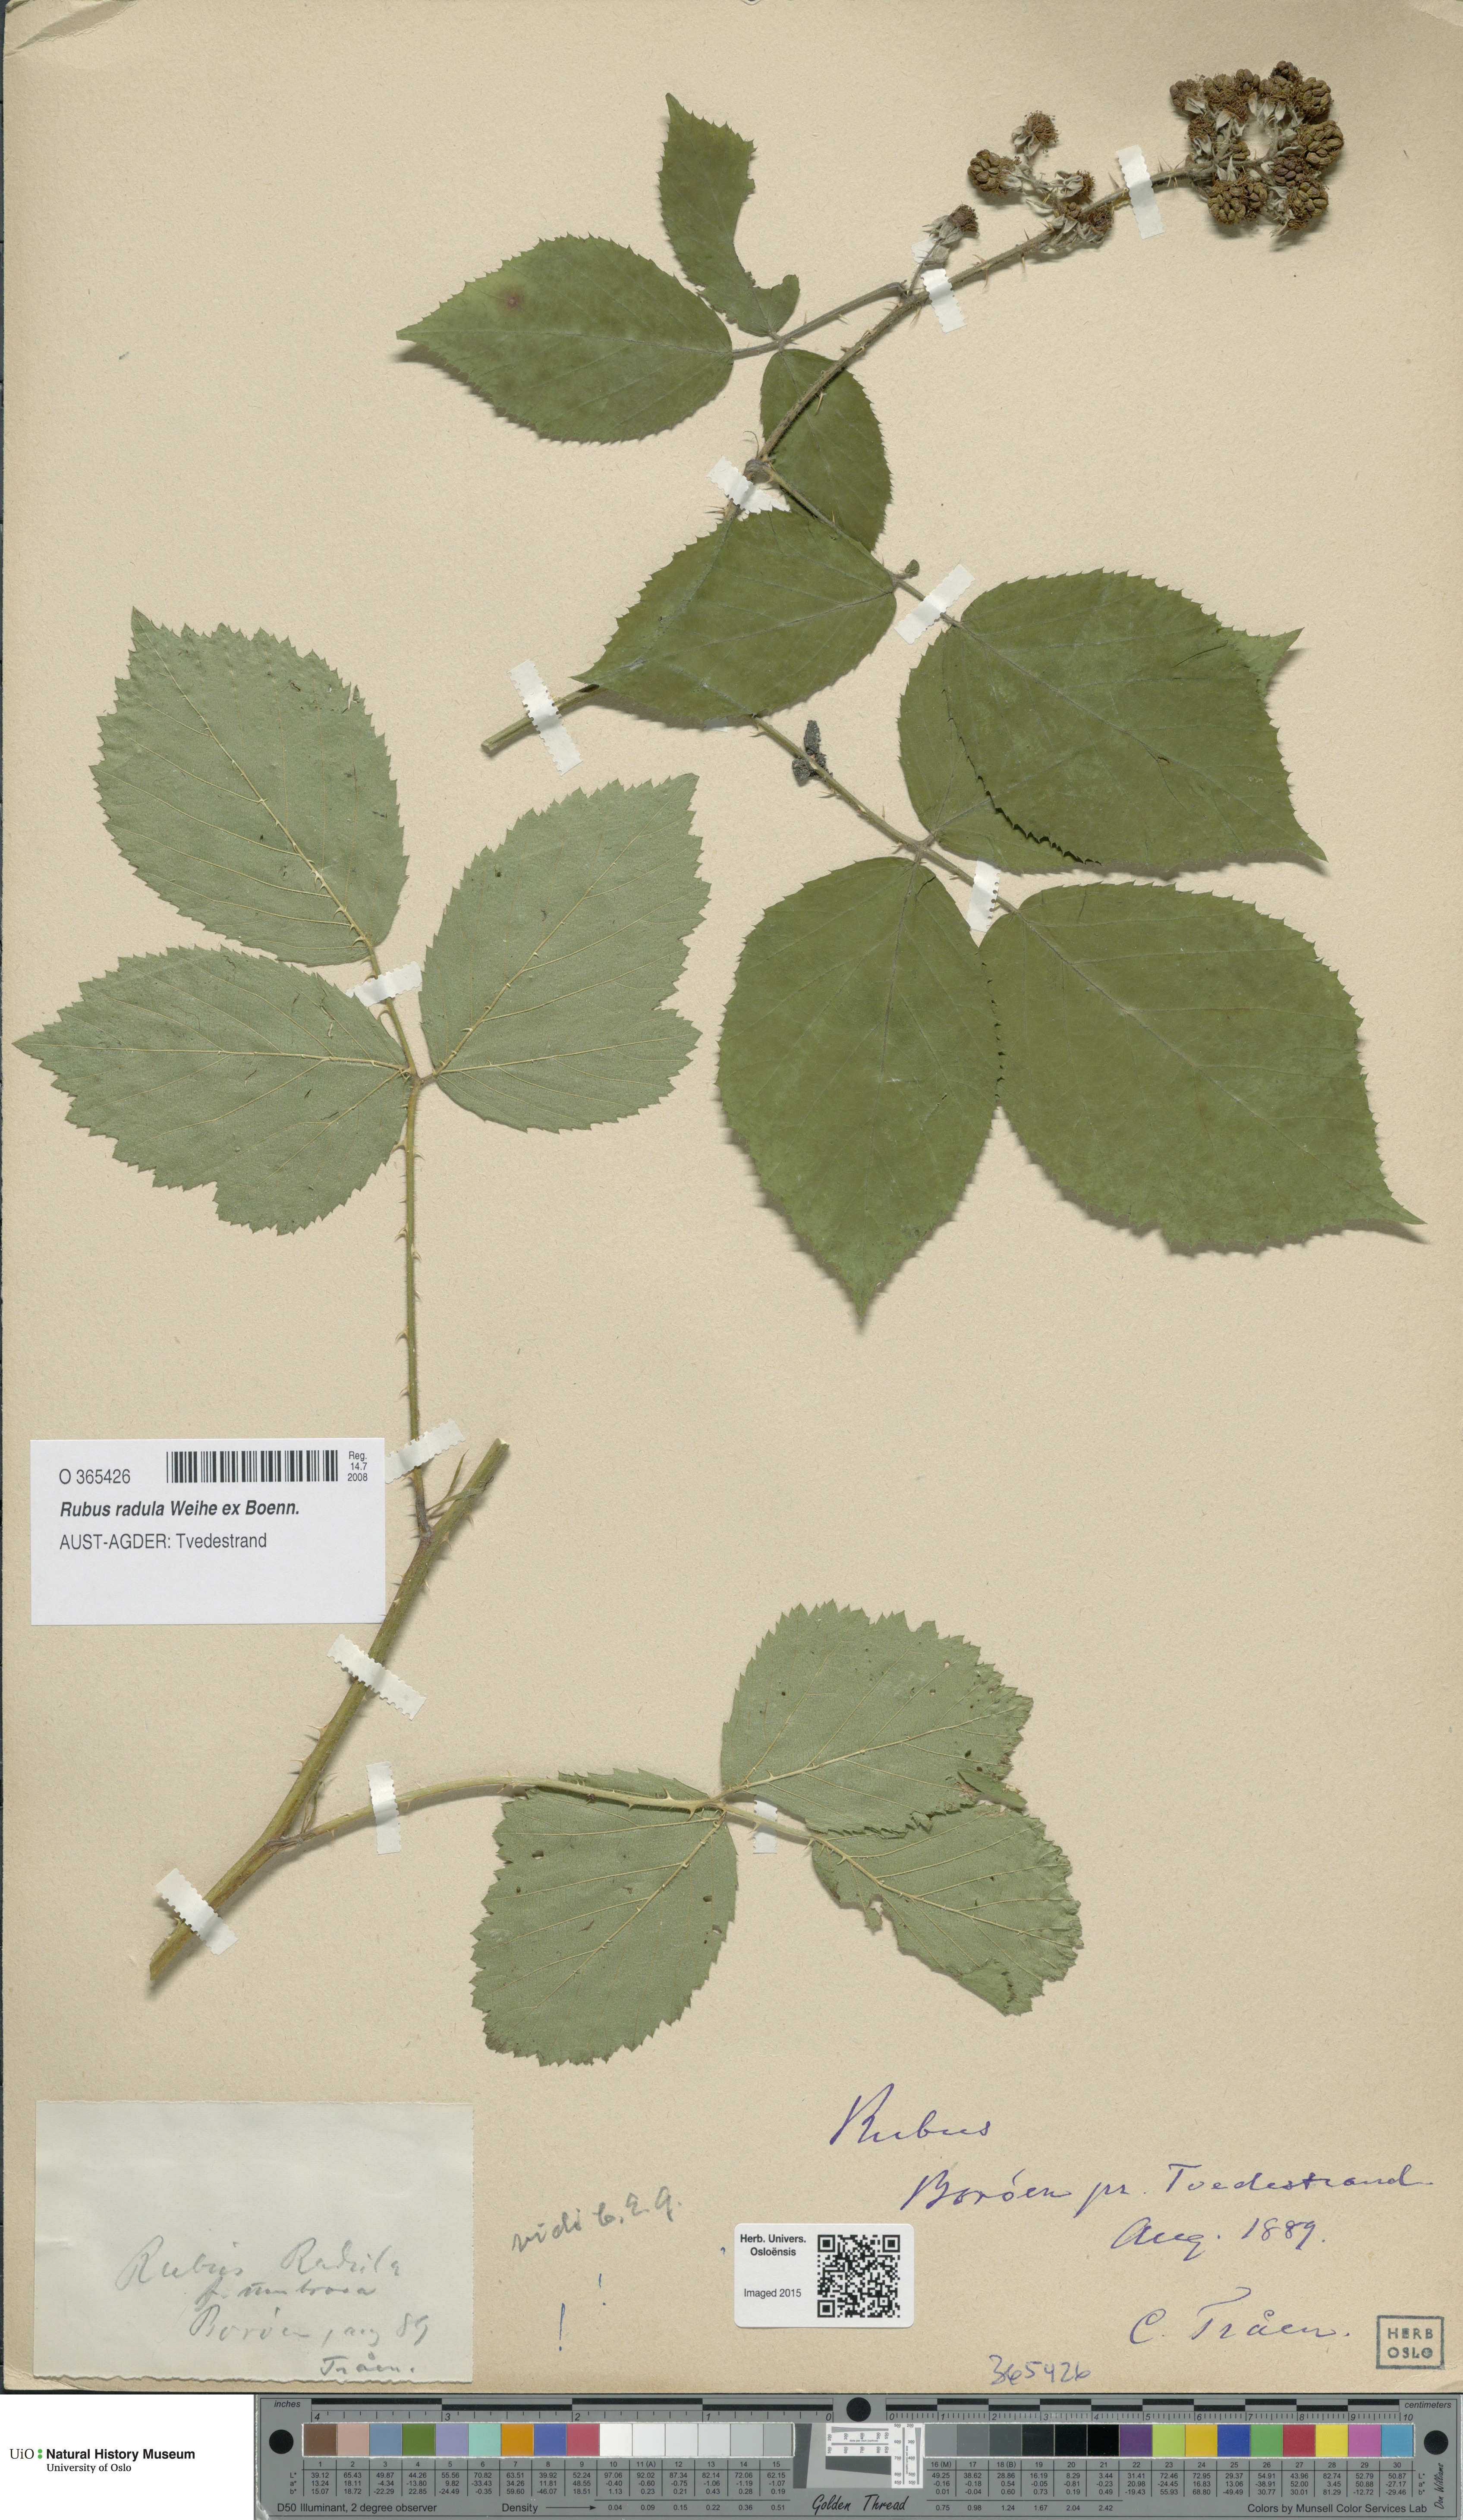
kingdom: Plantae
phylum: Tracheophyta
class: Magnoliopsida
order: Rosales
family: Rosaceae
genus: Rubus
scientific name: Rubus radula
